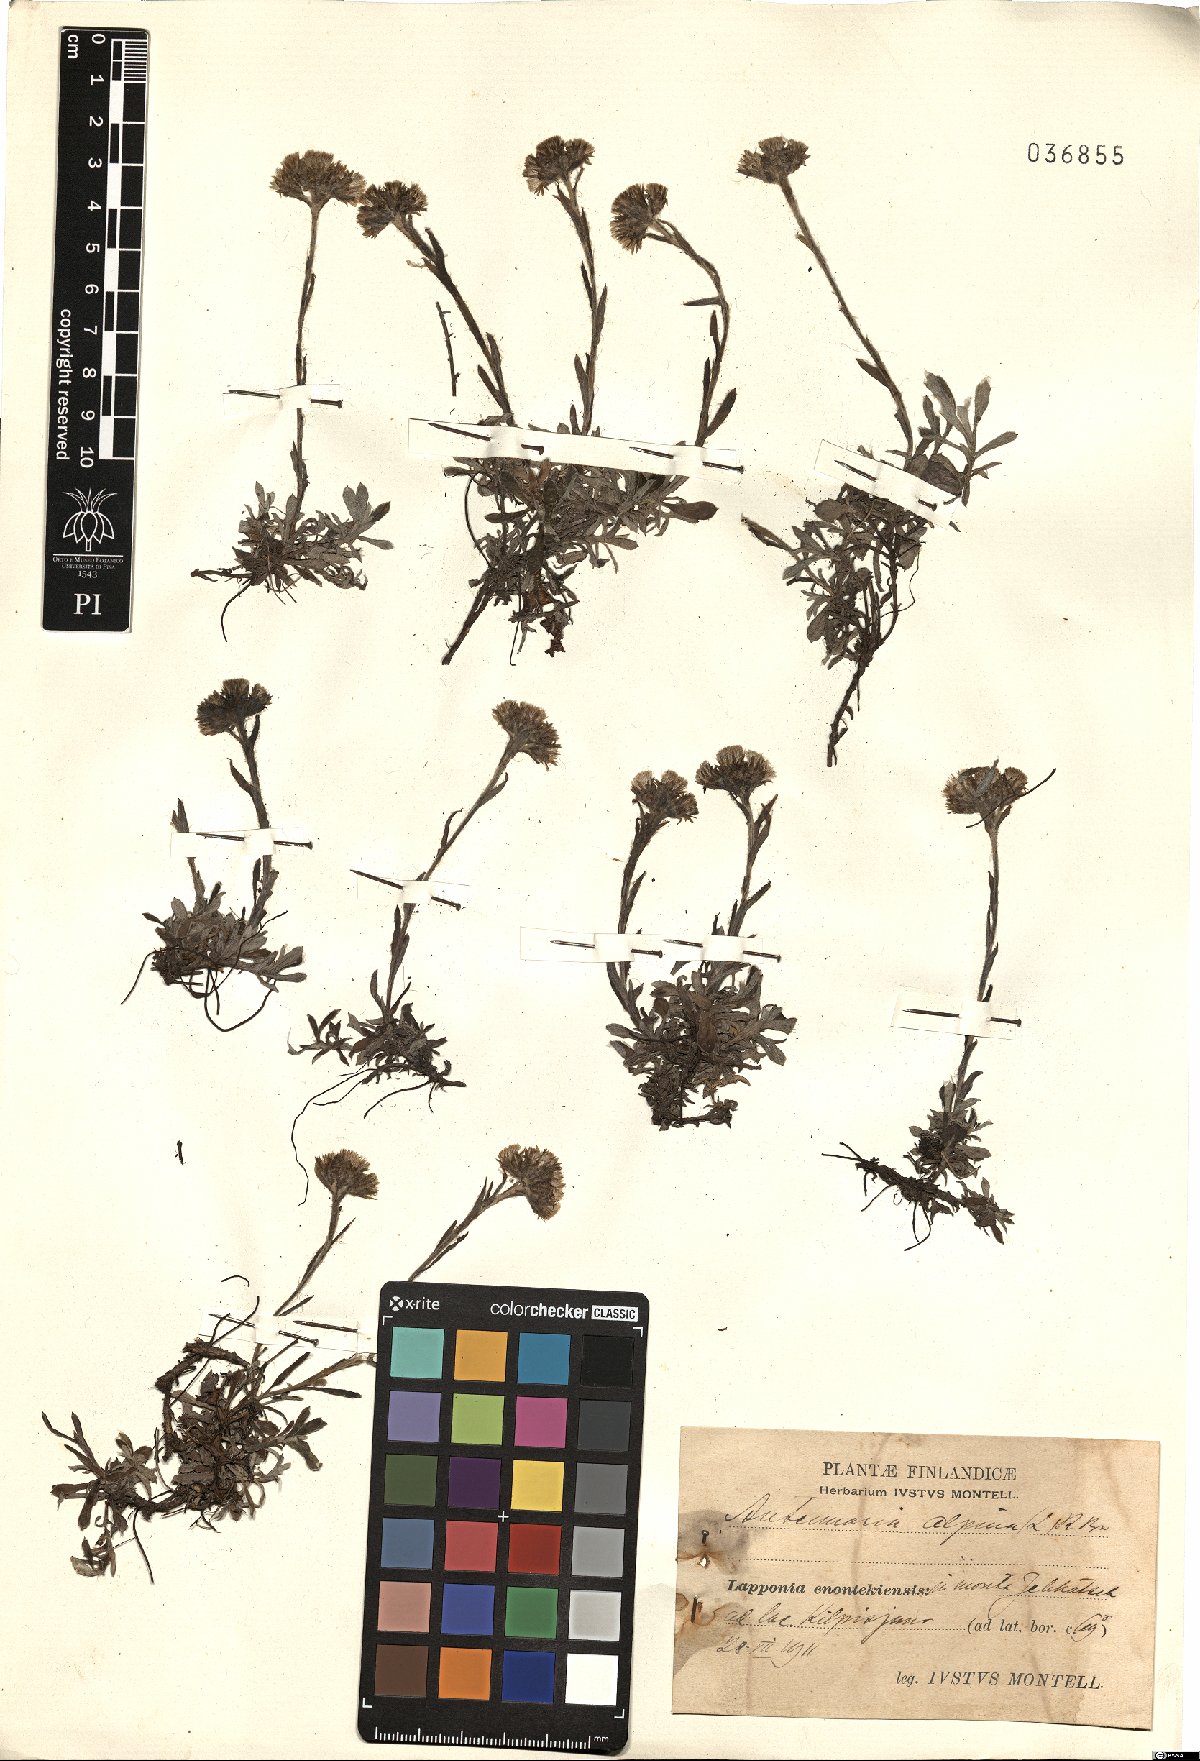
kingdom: Plantae
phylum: Tracheophyta
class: Magnoliopsida
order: Asterales
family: Asteraceae
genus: Antennaria
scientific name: Antennaria alpina
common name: Alpine pussytoes
